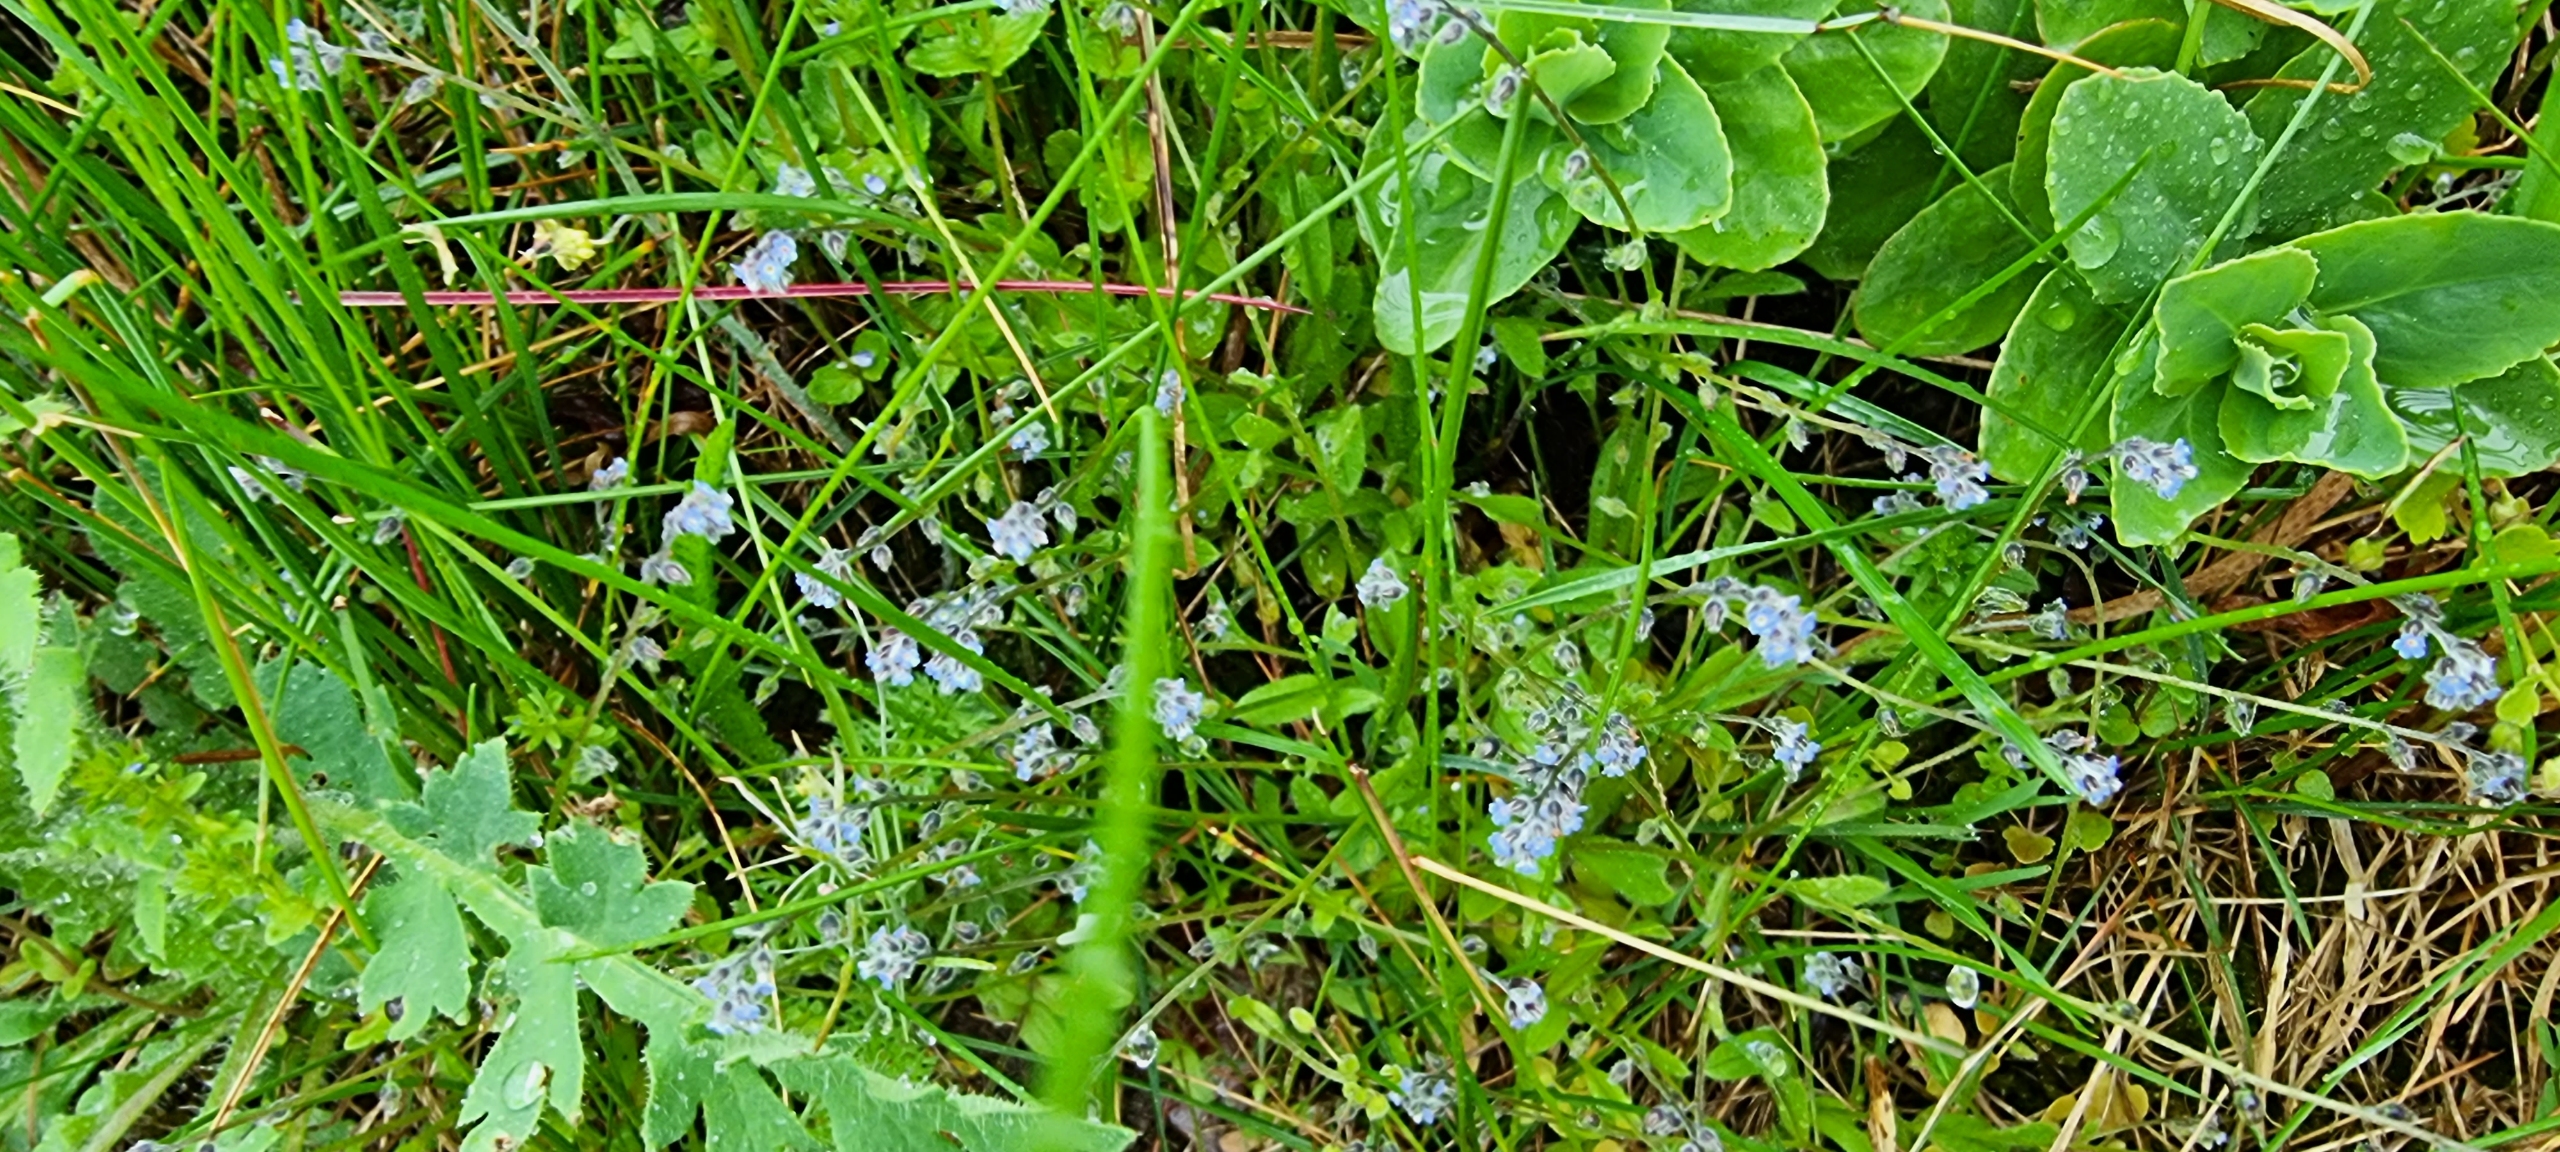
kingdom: Plantae
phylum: Tracheophyta
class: Magnoliopsida
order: Boraginales
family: Boraginaceae
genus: Myosotis
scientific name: Myosotis ramosissima
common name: Bakke-forglemmigej
